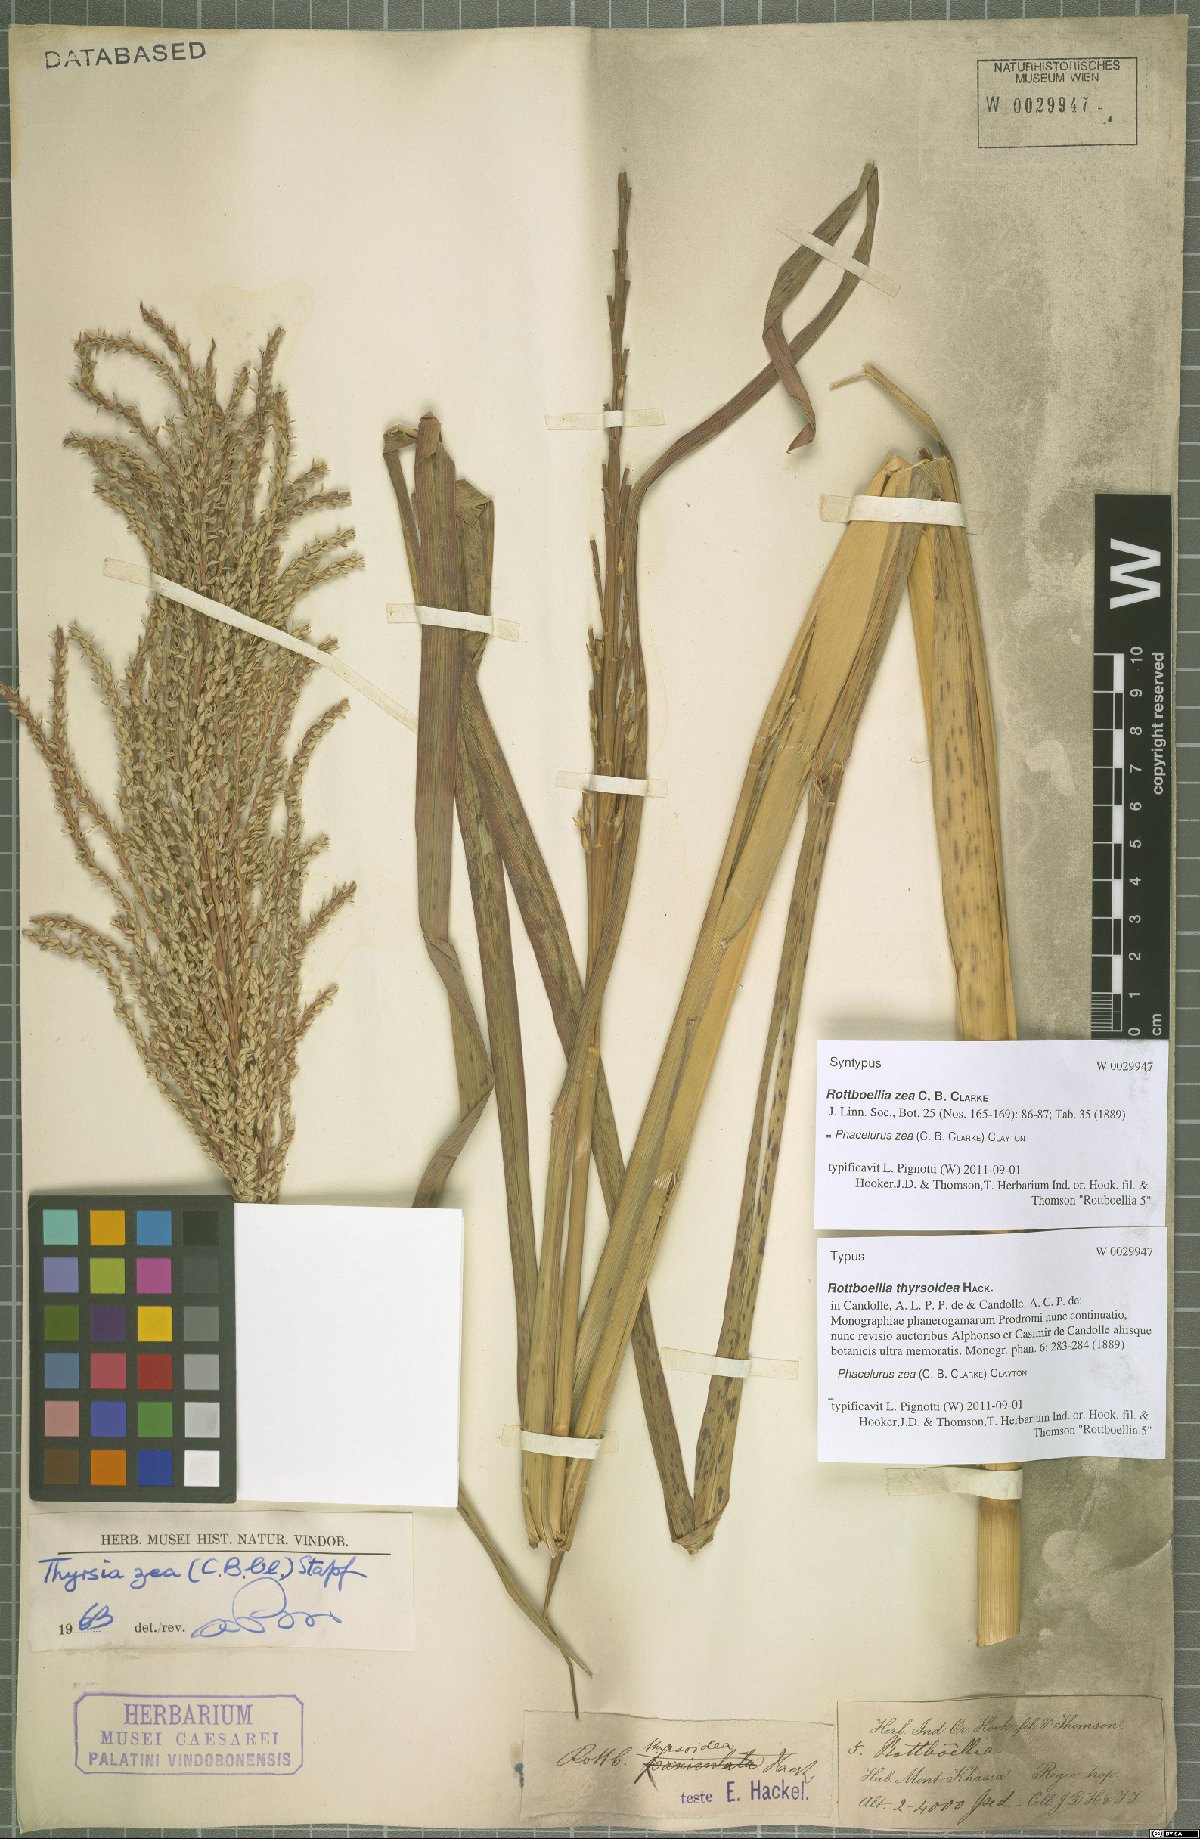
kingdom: Plantae
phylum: Tracheophyta
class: Liliopsida
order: Poales
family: Poaceae
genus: Thyrsia
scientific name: Thyrsia zea
